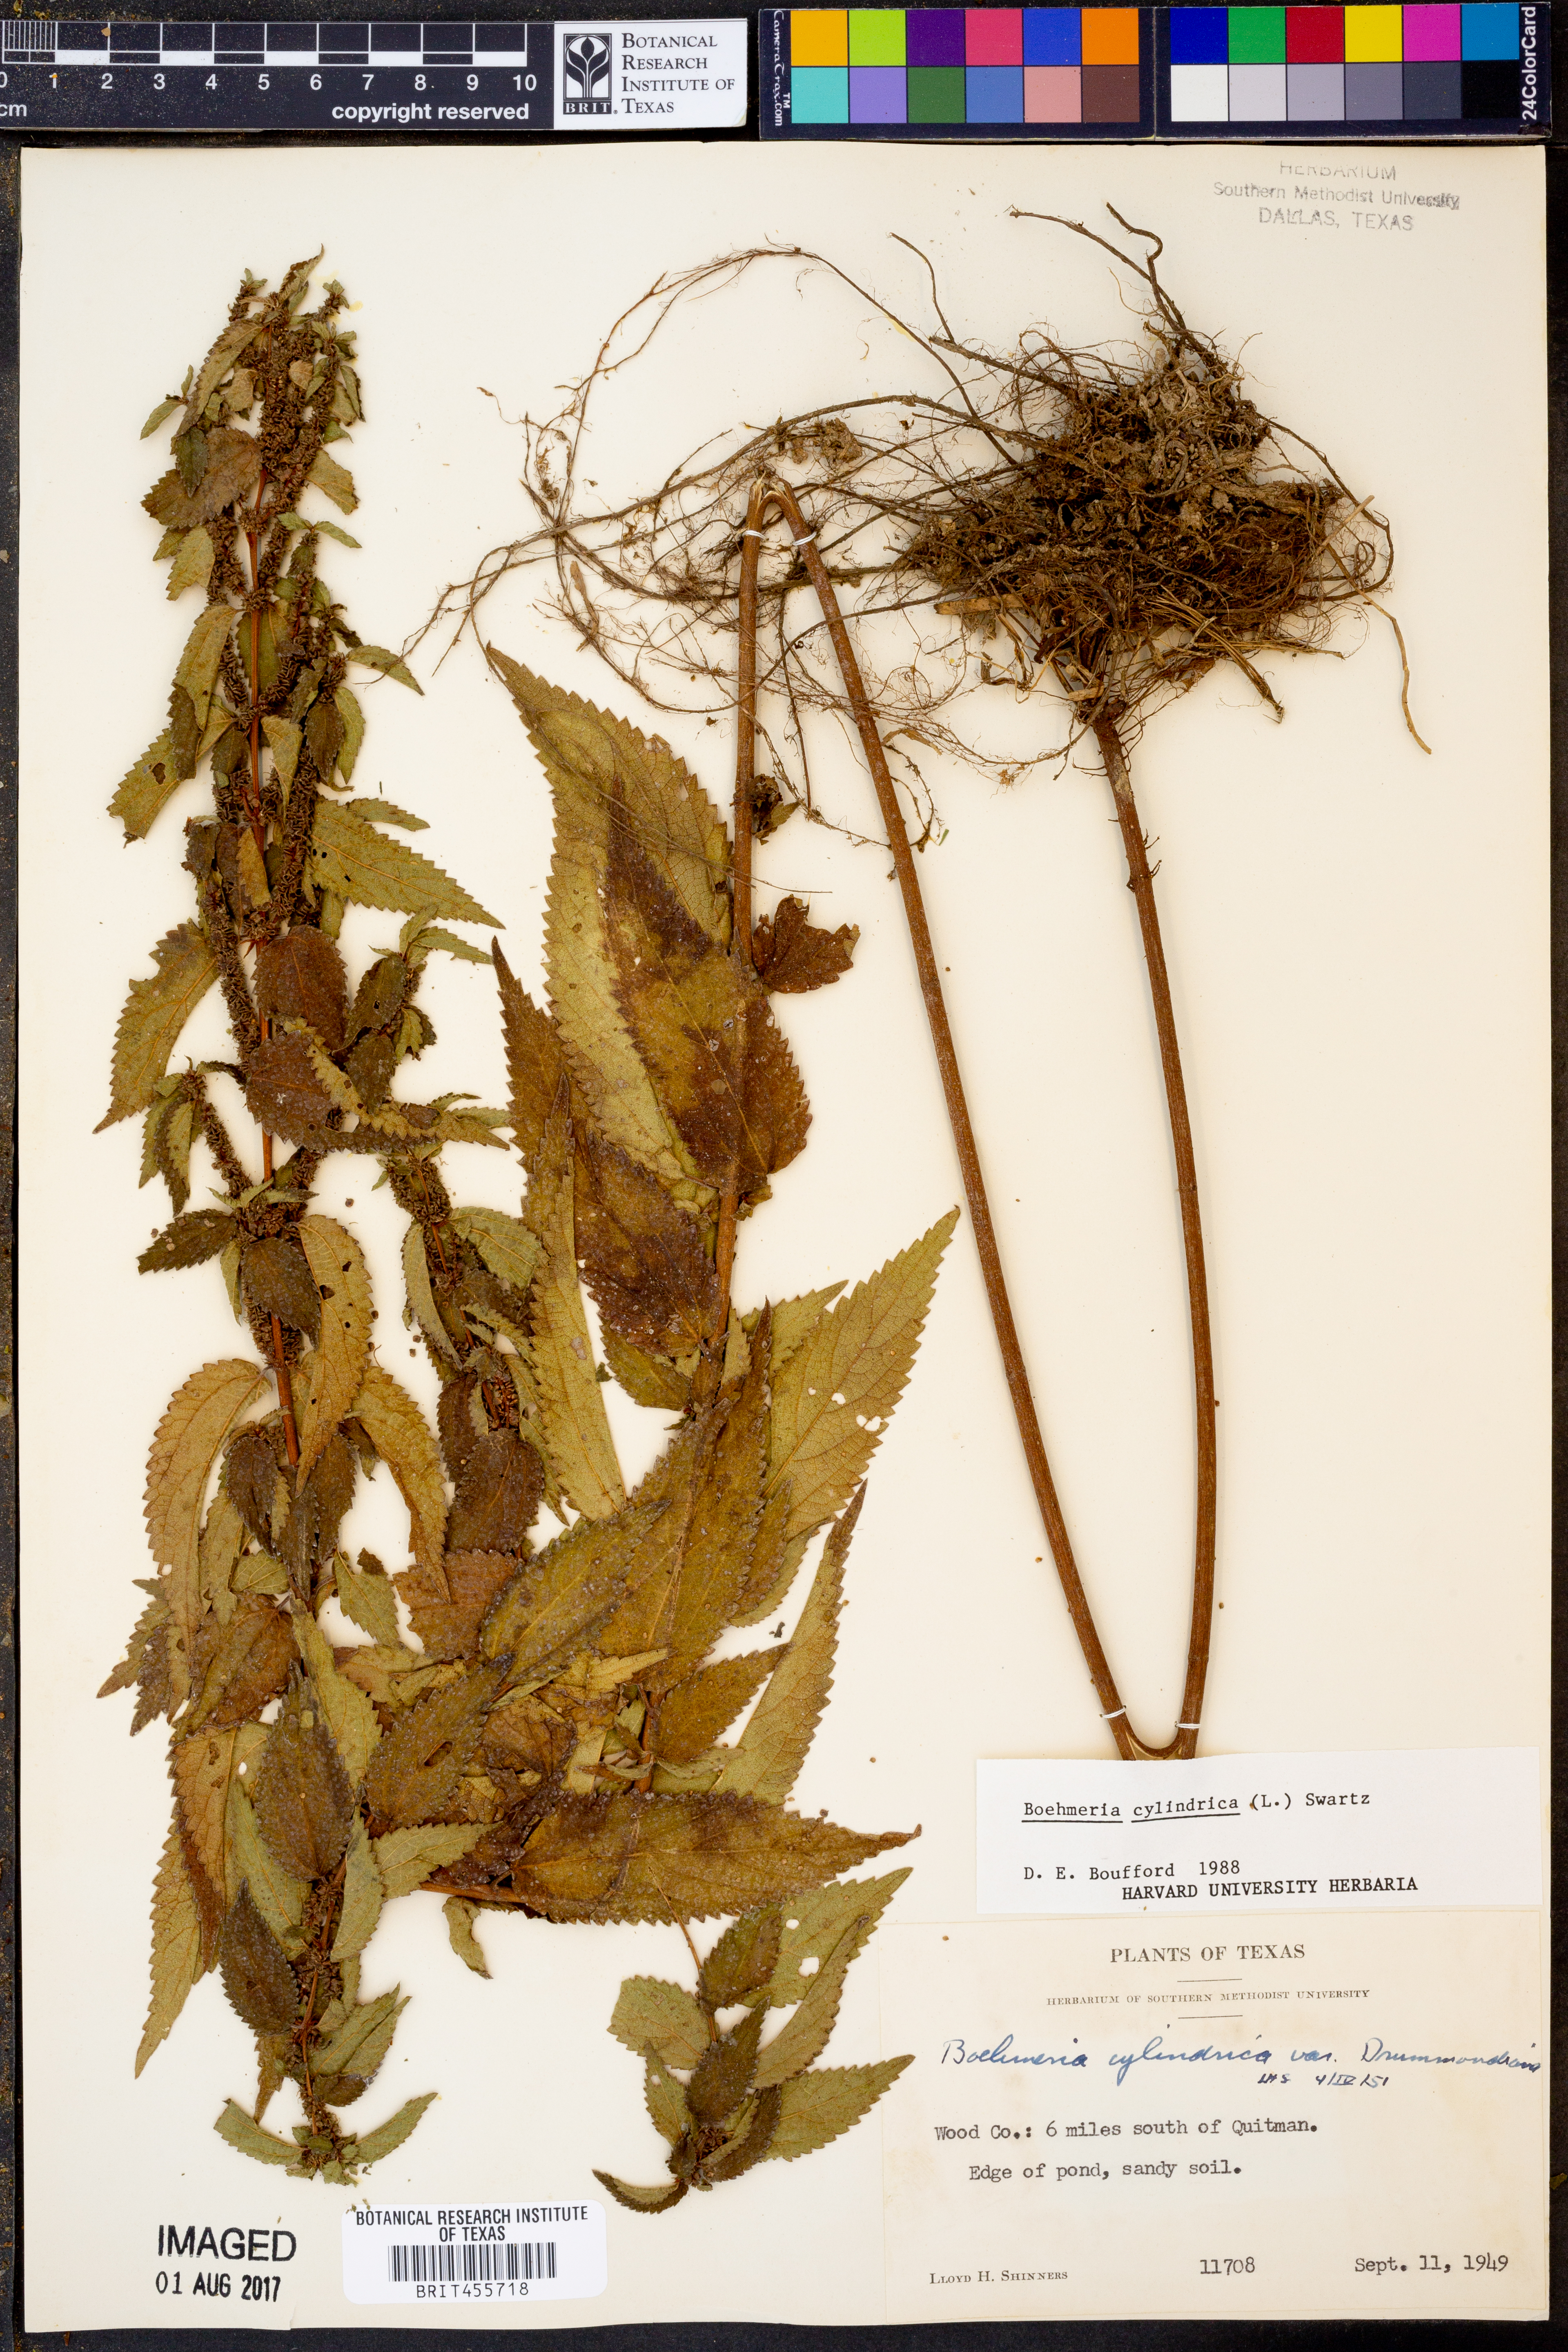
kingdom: Plantae
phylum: Tracheophyta
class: Magnoliopsida
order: Rosales
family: Urticaceae
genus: Boehmeria
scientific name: Boehmeria cylindrica
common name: Bog-hemp
